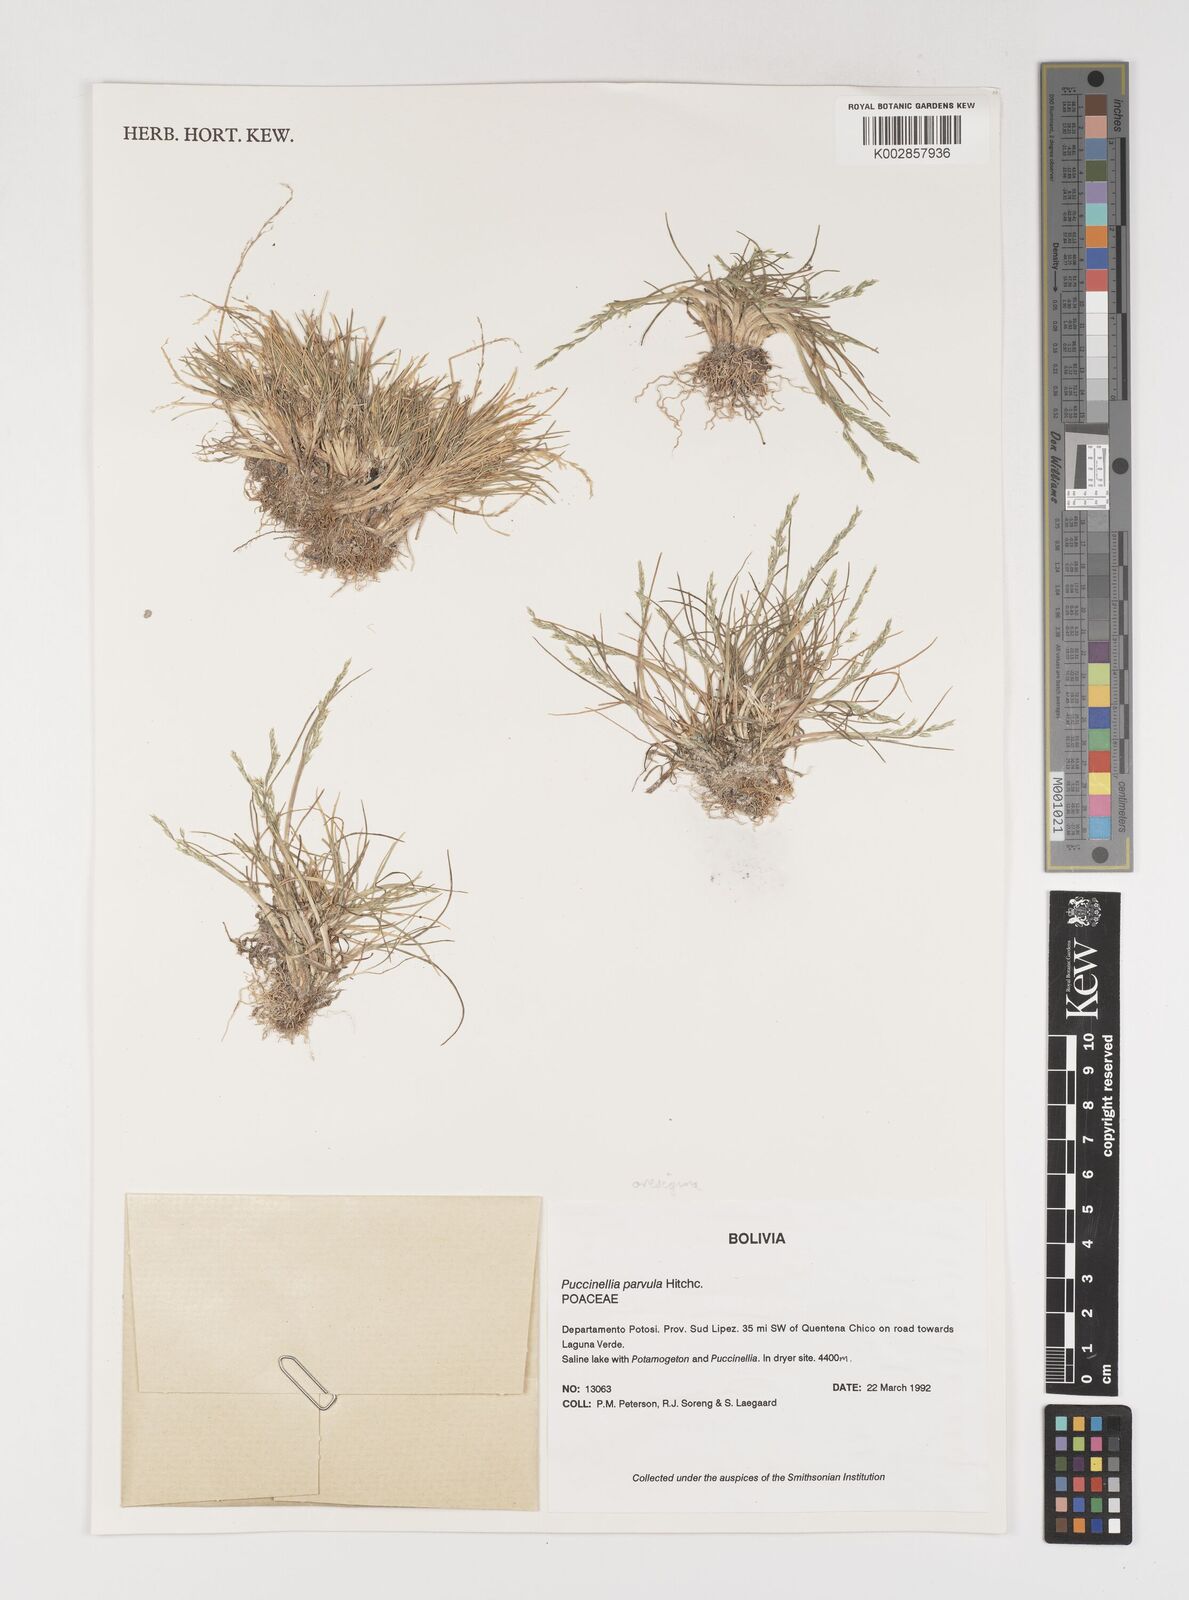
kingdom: Plantae
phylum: Tracheophyta
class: Liliopsida
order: Poales
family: Poaceae
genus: Puccinellia
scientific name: Puccinellia frigida
